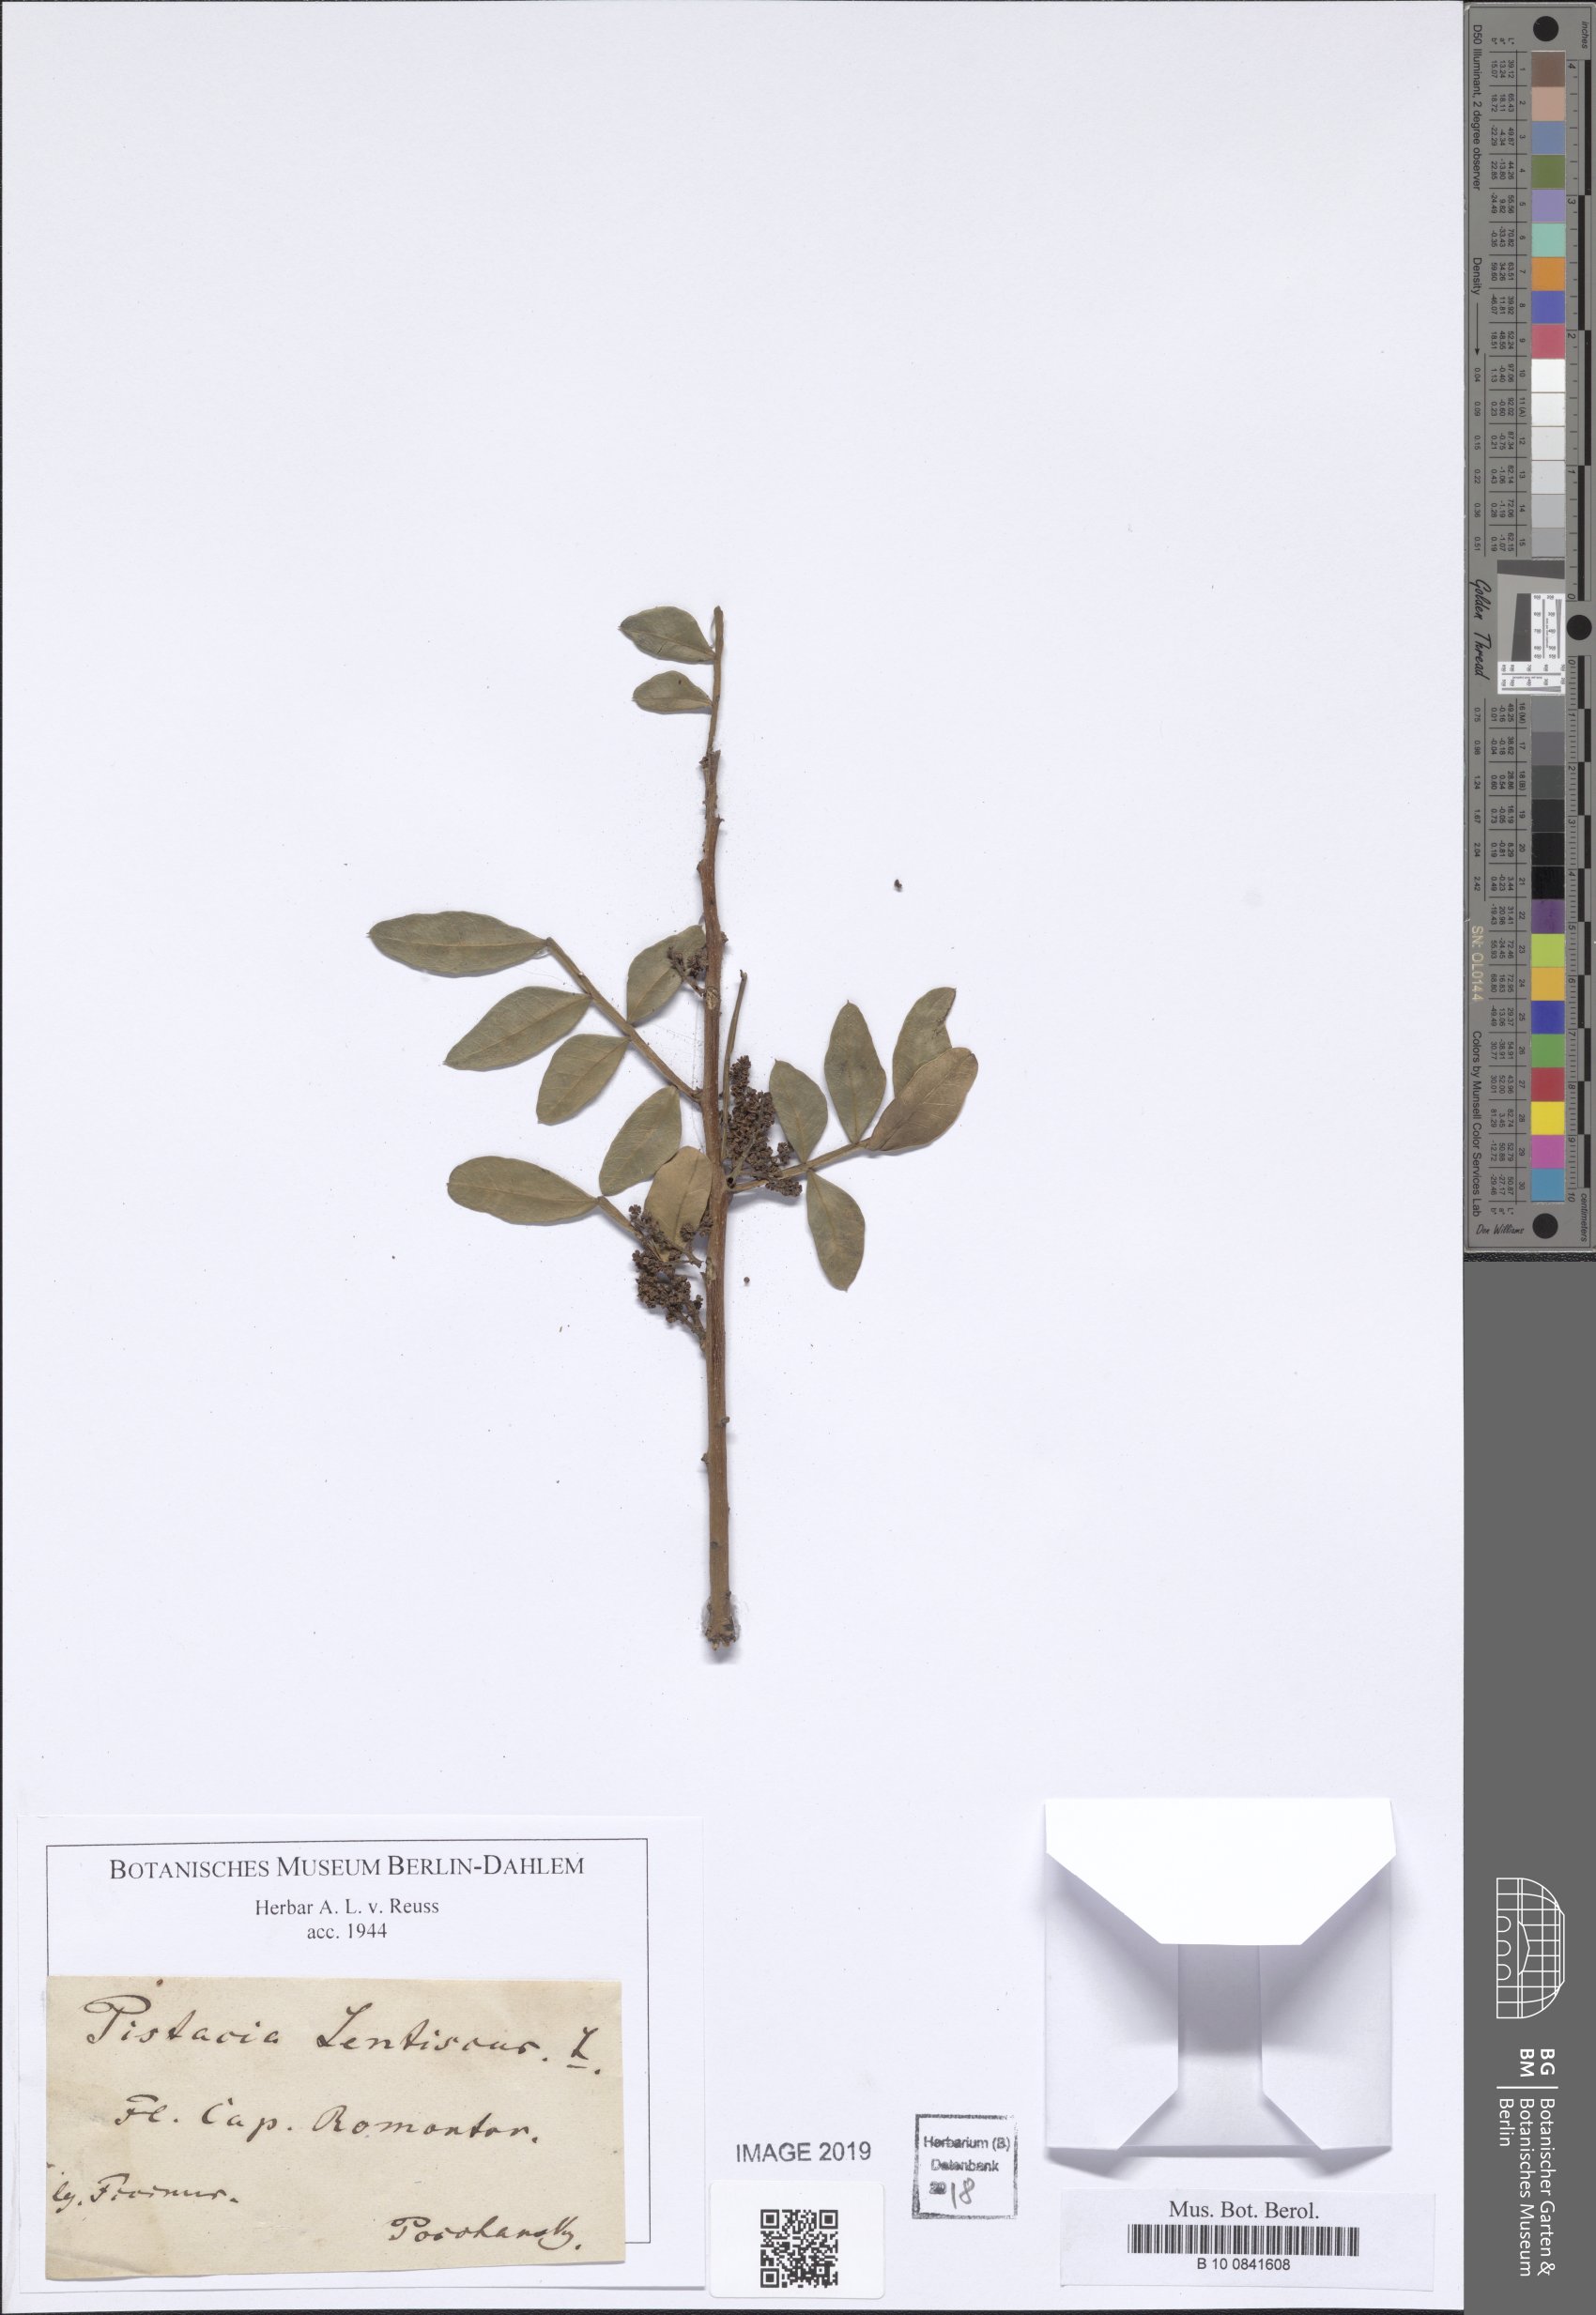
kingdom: Plantae
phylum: Tracheophyta
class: Magnoliopsida
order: Sapindales
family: Anacardiaceae
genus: Pistacia
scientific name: Pistacia lentiscus
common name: Lentisk
